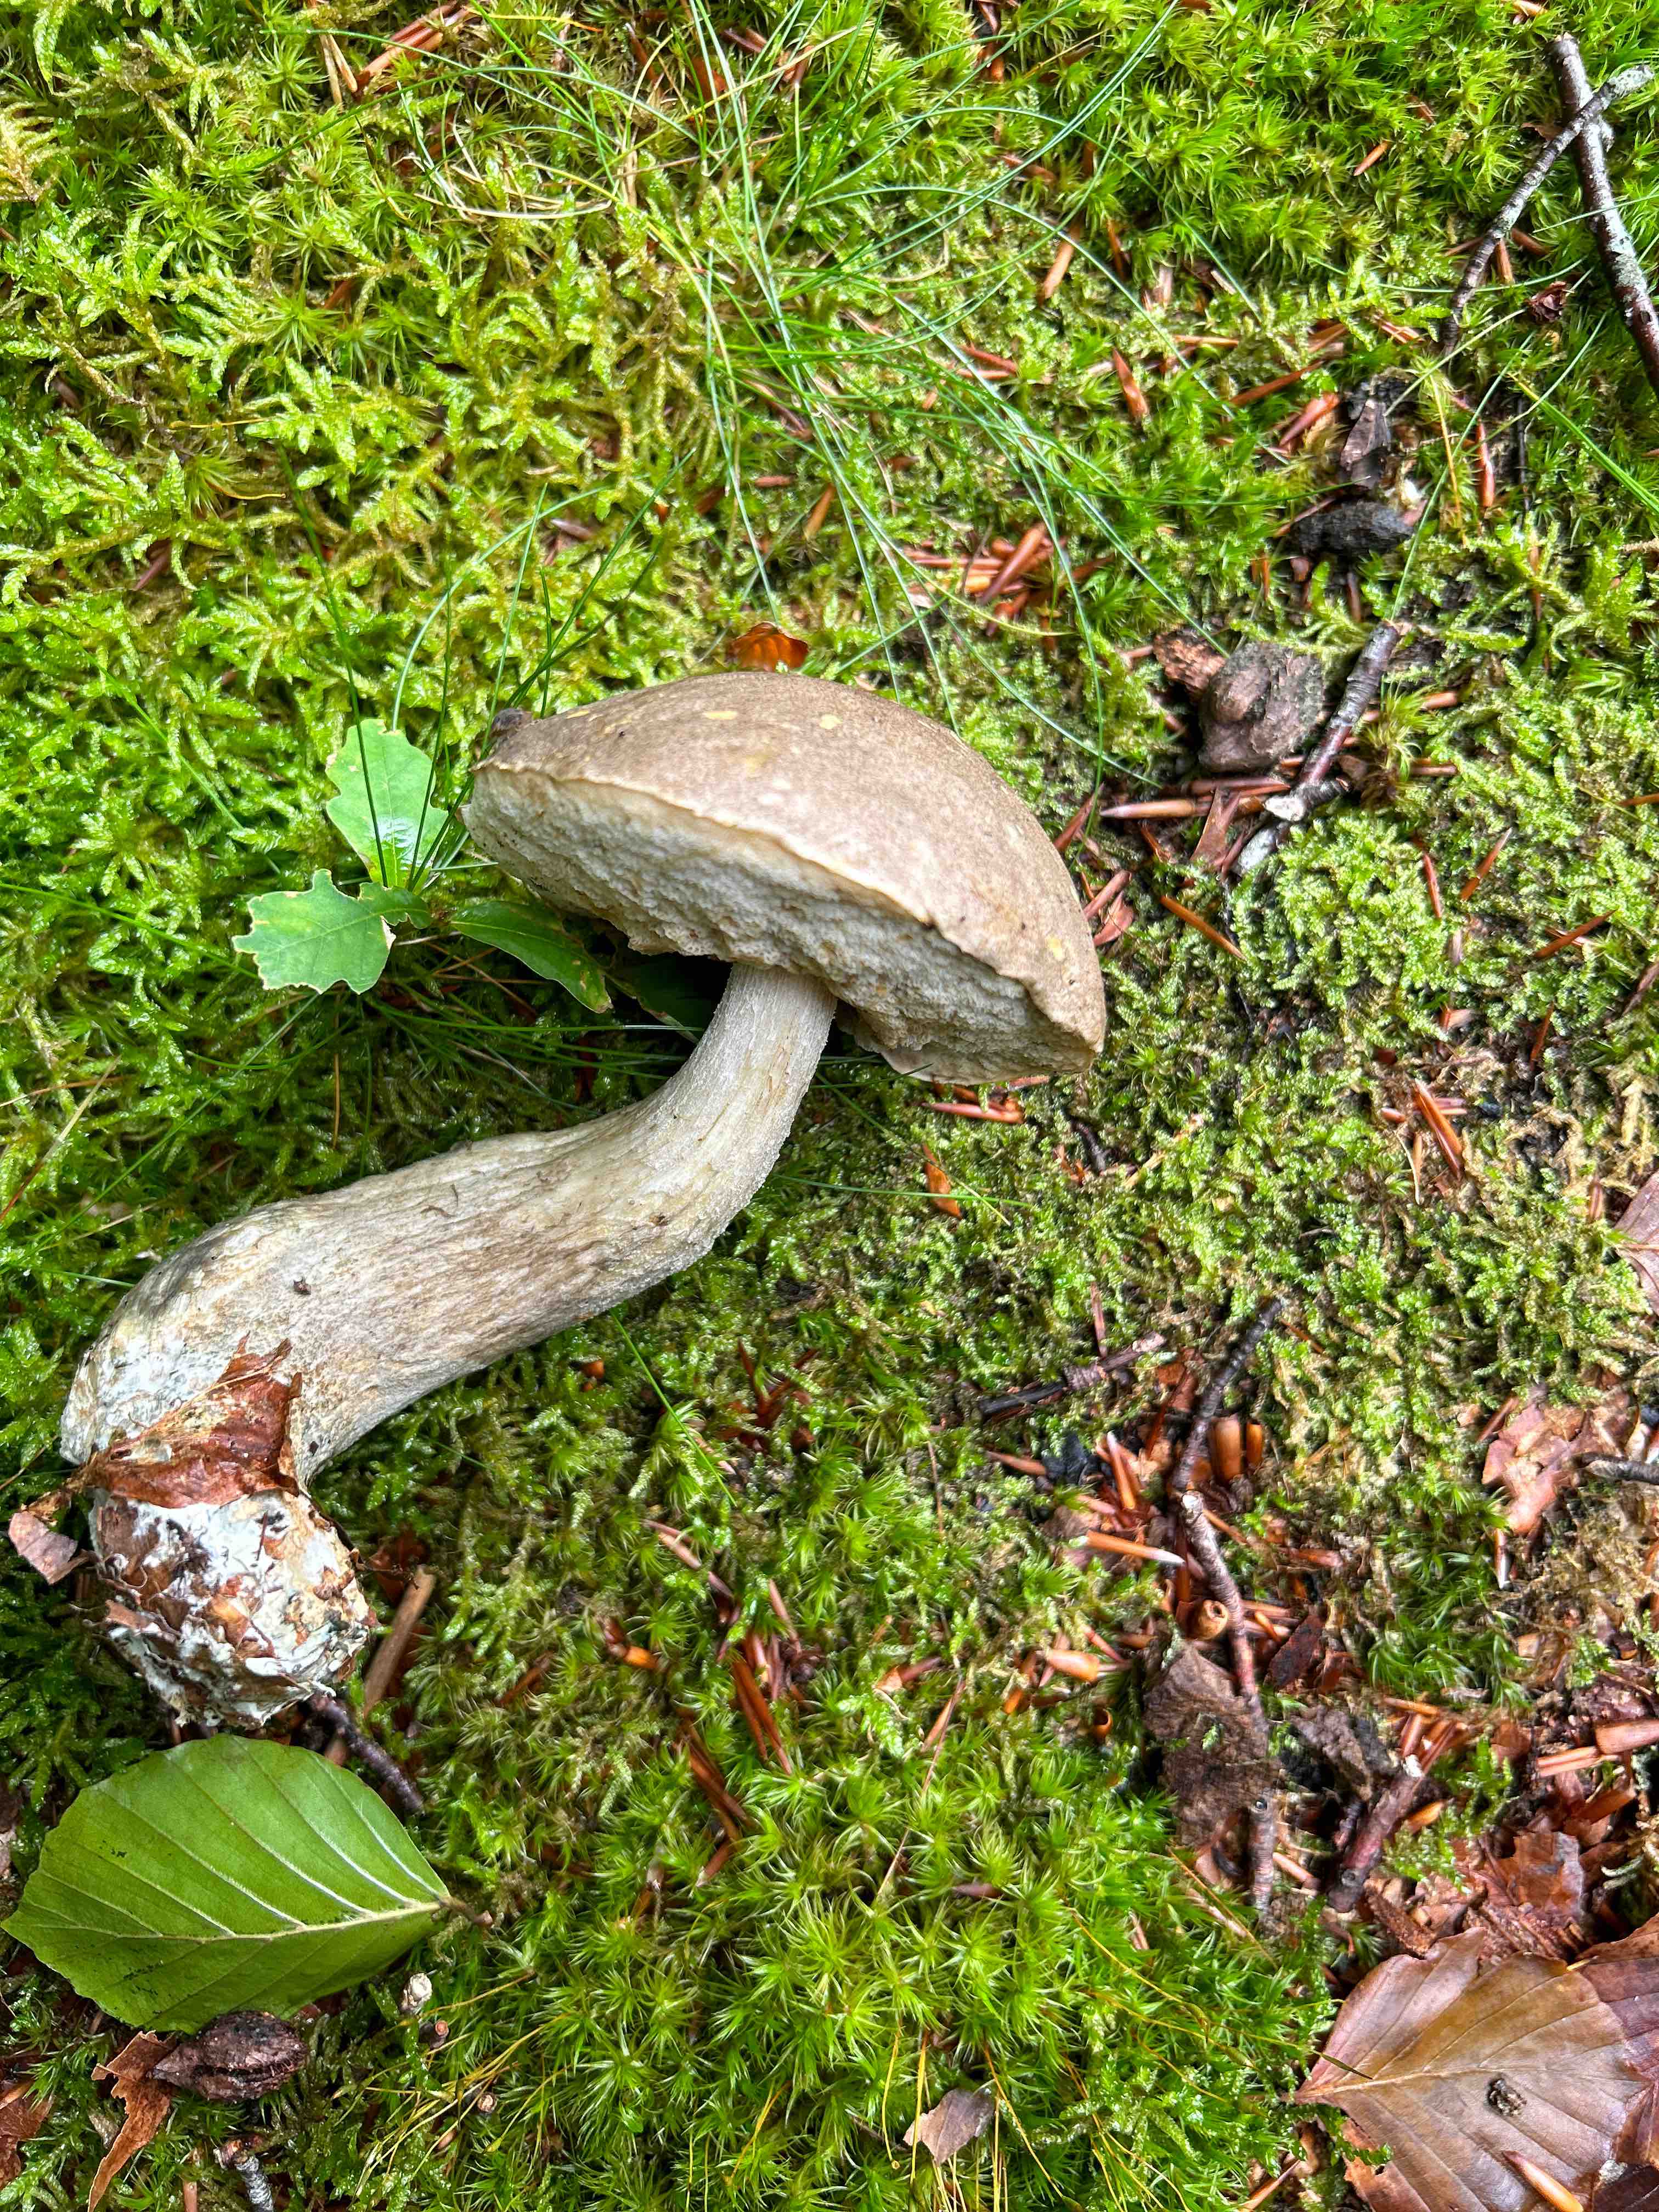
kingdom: Fungi
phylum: Basidiomycota
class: Agaricomycetes
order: Boletales
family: Boletaceae
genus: Leccinum
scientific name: Leccinum
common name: skælrørhat
